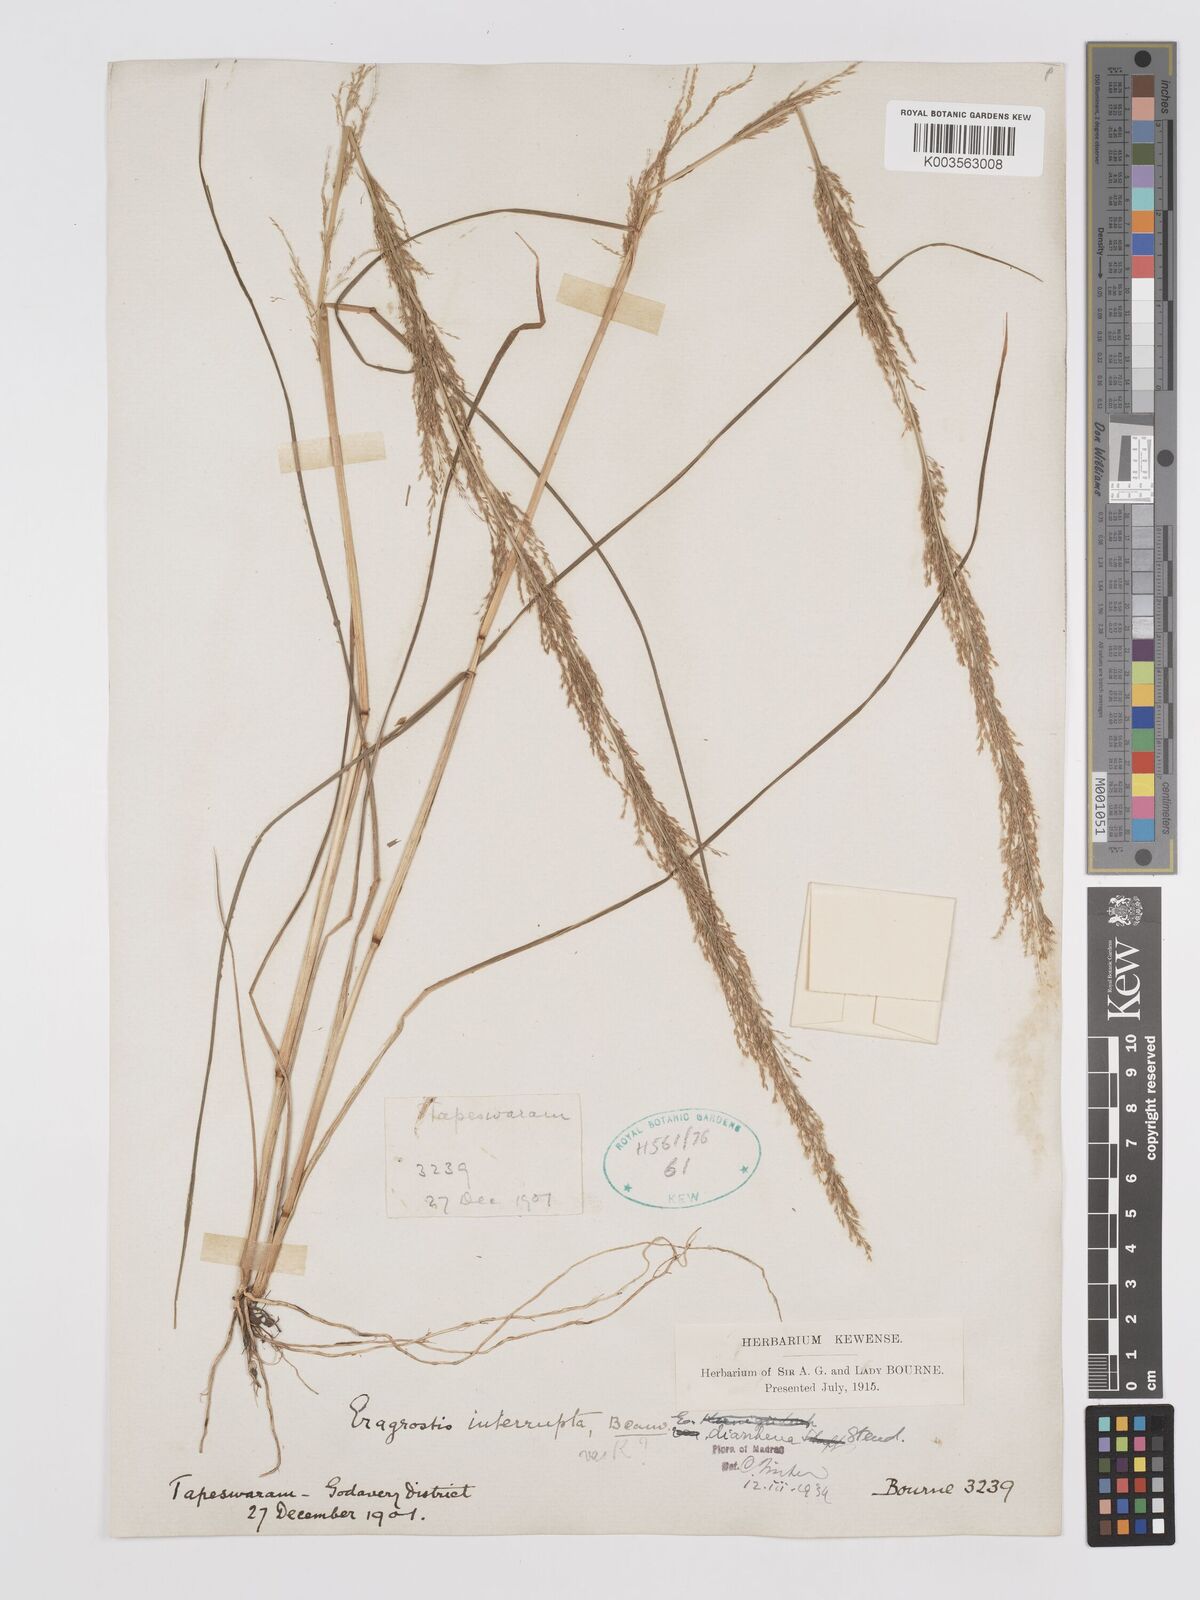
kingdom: Plantae
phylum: Tracheophyta
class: Liliopsida
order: Poales
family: Poaceae
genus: Eragrostis
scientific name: Eragrostis japonica
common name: Pond lovegrass
